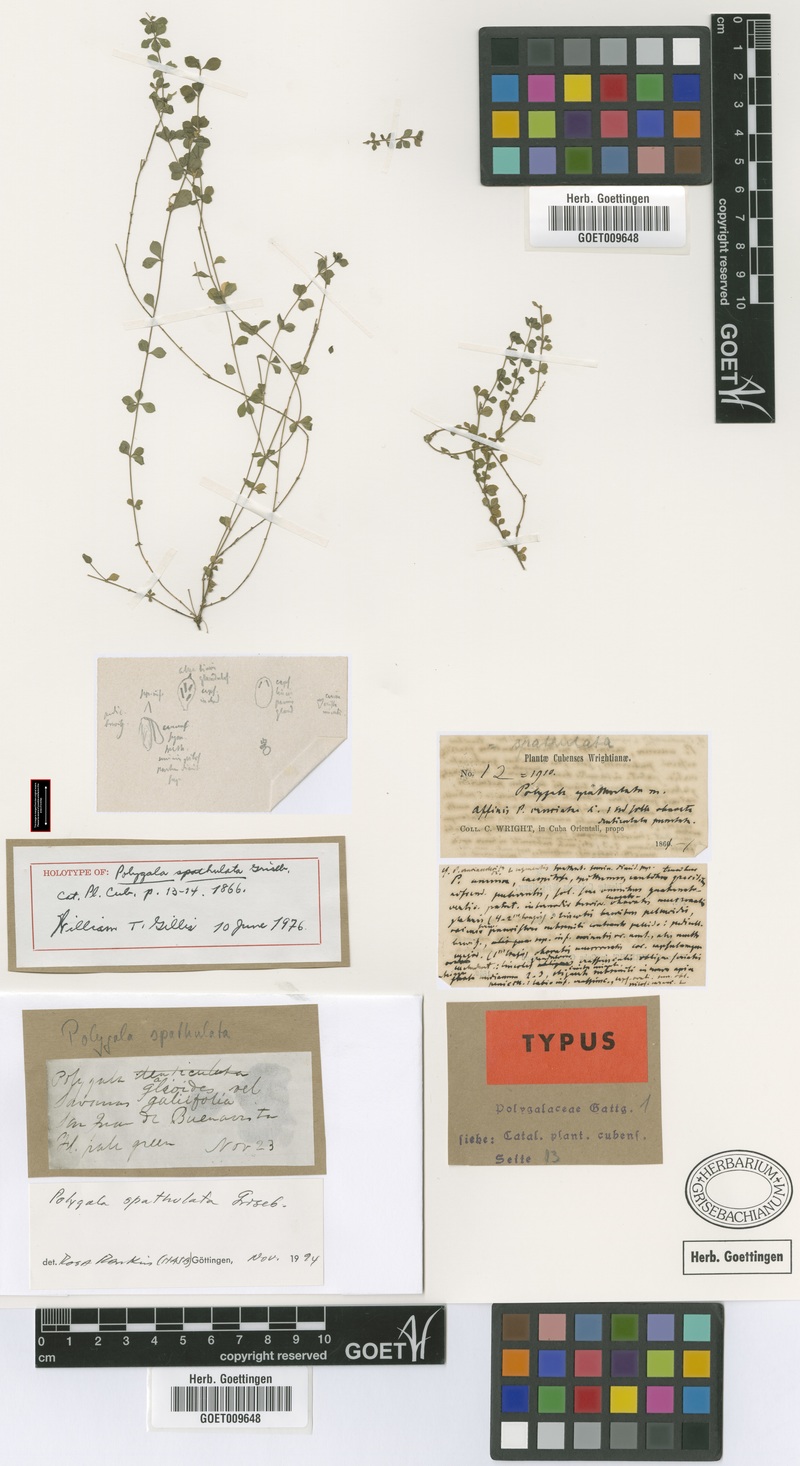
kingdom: Plantae
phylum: Tracheophyta
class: Magnoliopsida
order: Fabales
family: Polygalaceae
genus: Polygala
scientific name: Polygala spathulata
